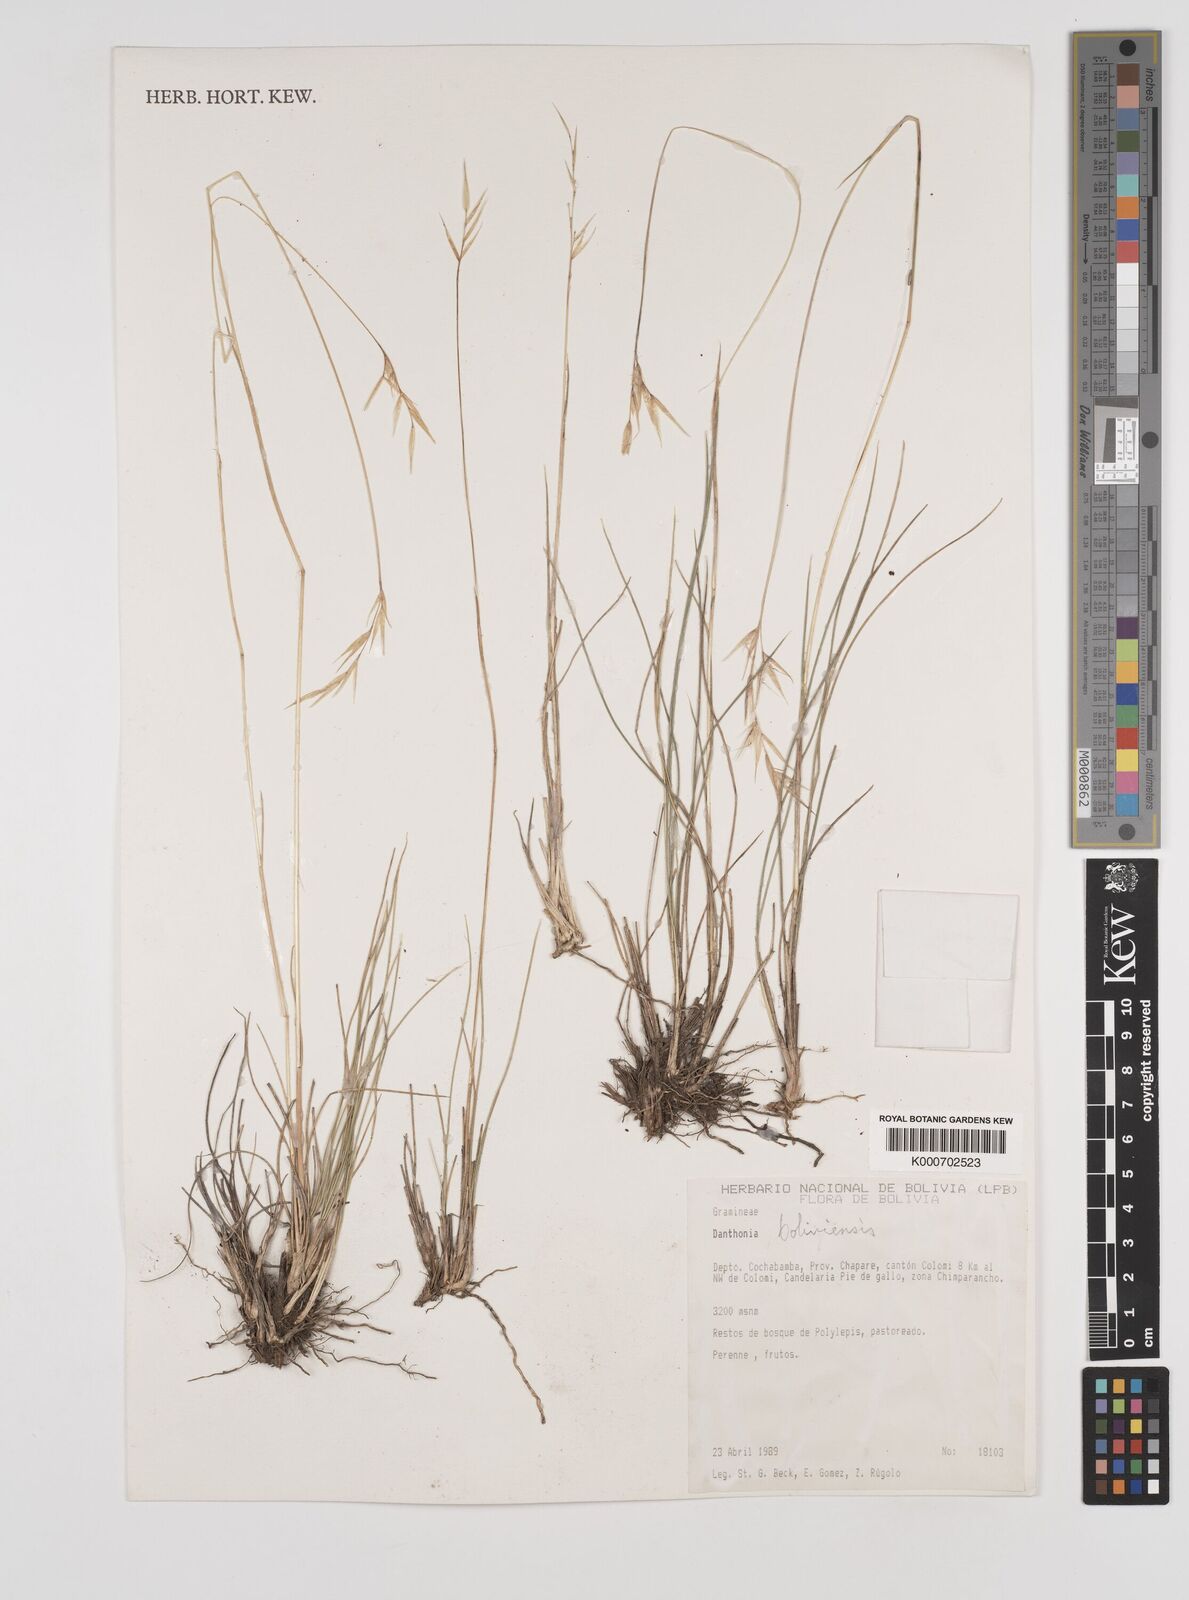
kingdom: Plantae
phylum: Tracheophyta
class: Liliopsida
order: Poales
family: Poaceae
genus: Danthonia
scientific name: Danthonia boliviensis
